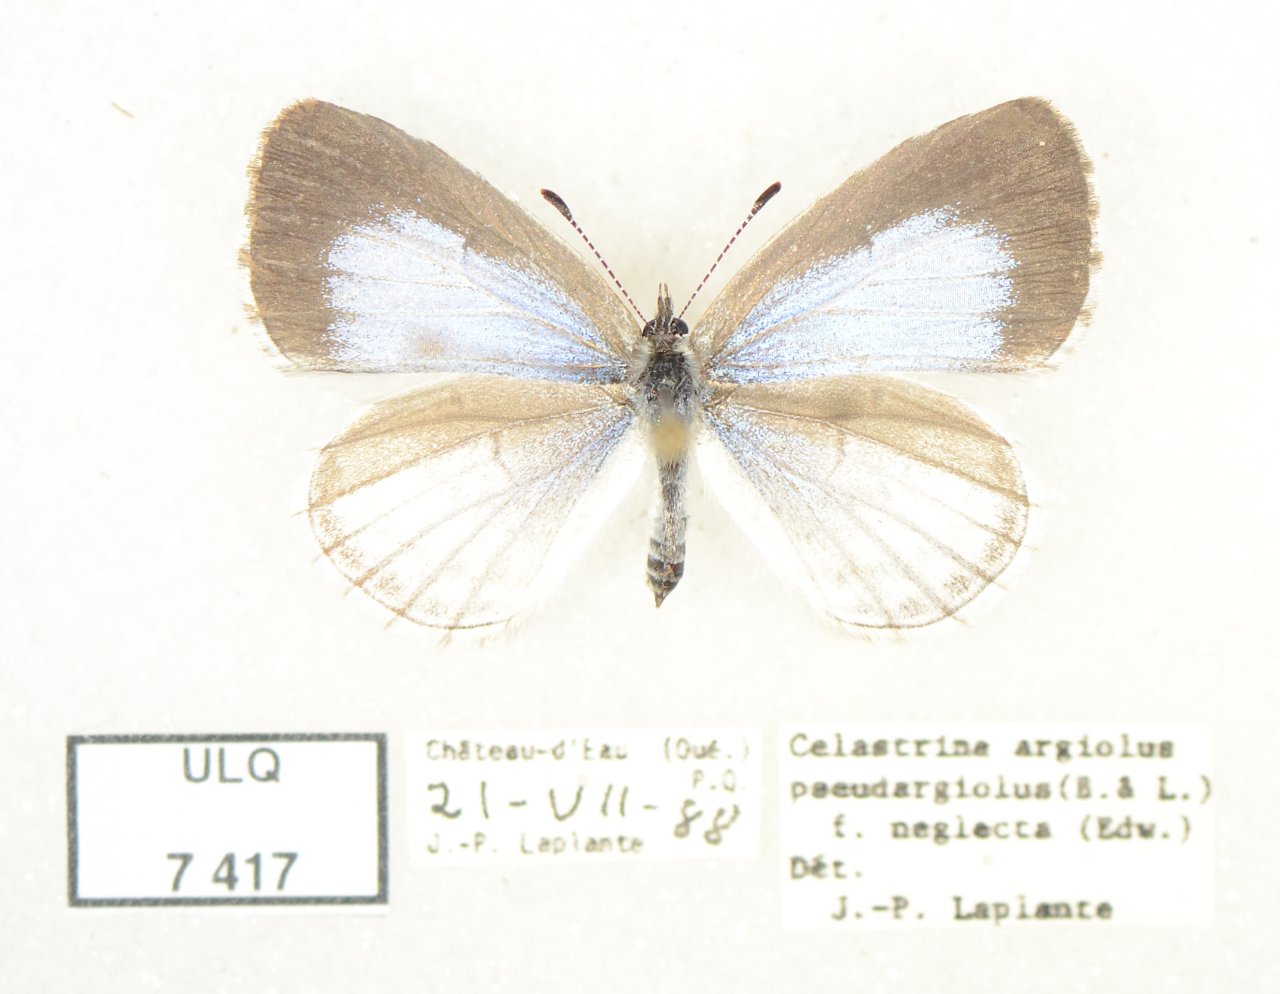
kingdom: Animalia
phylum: Arthropoda
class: Insecta
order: Lepidoptera
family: Lycaenidae
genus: Celastrina
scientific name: Celastrina lucia
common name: Northern Spring Azure
